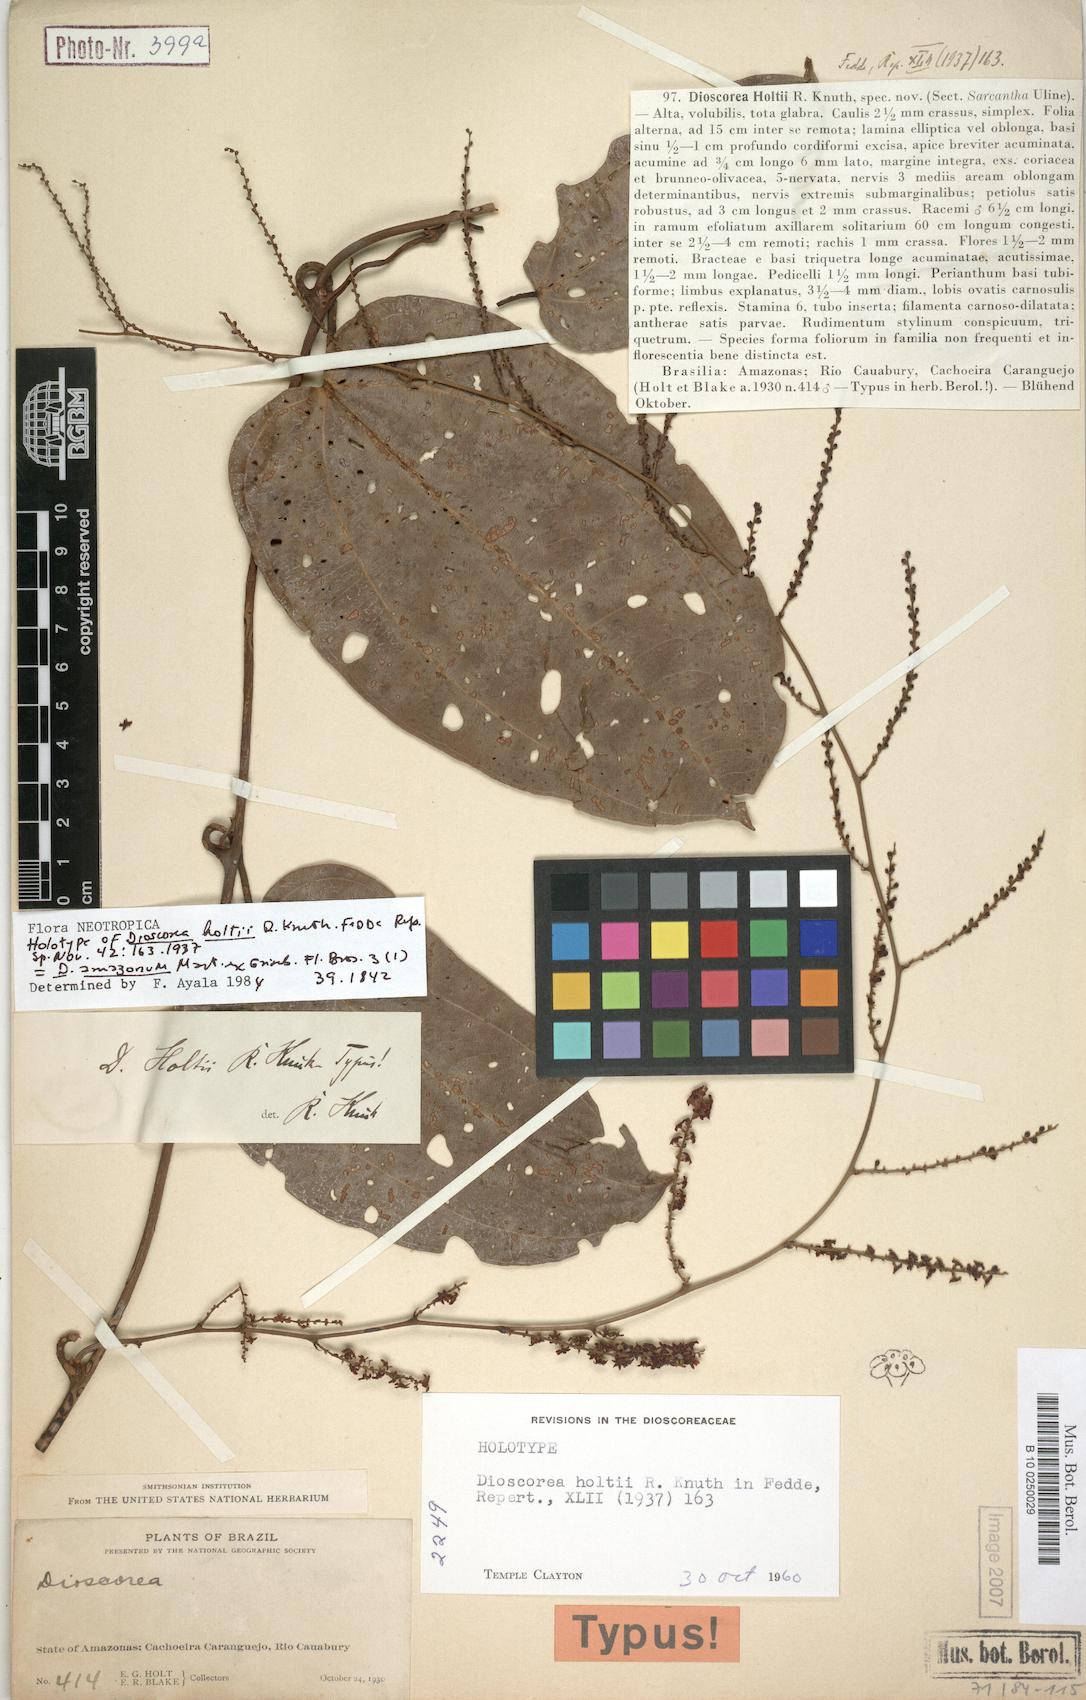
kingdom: Plantae
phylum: Tracheophyta
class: Liliopsida
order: Dioscoreales
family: Dioscoreaceae
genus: Dioscorea
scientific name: Dioscorea amazonum
